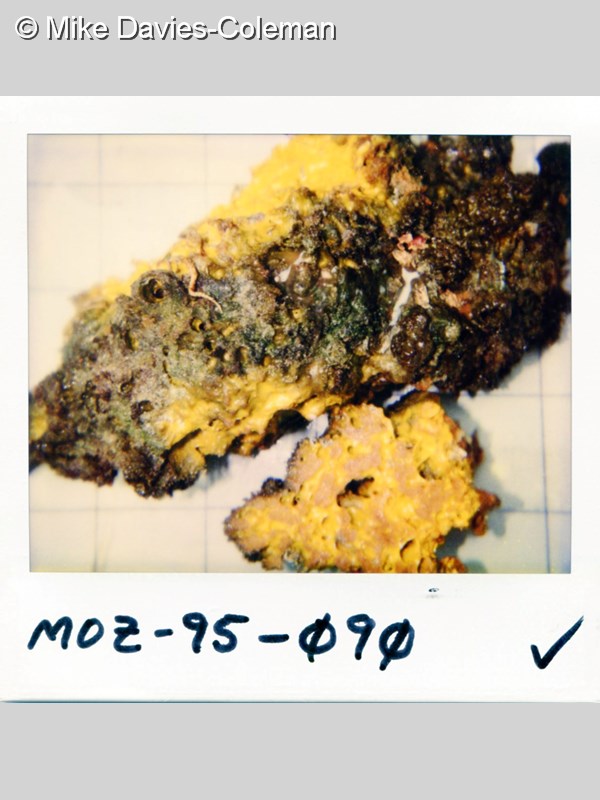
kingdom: Animalia
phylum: Porifera
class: Demospongiae
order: Biemnida
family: Biemnidae
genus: Biemna
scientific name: Biemna
